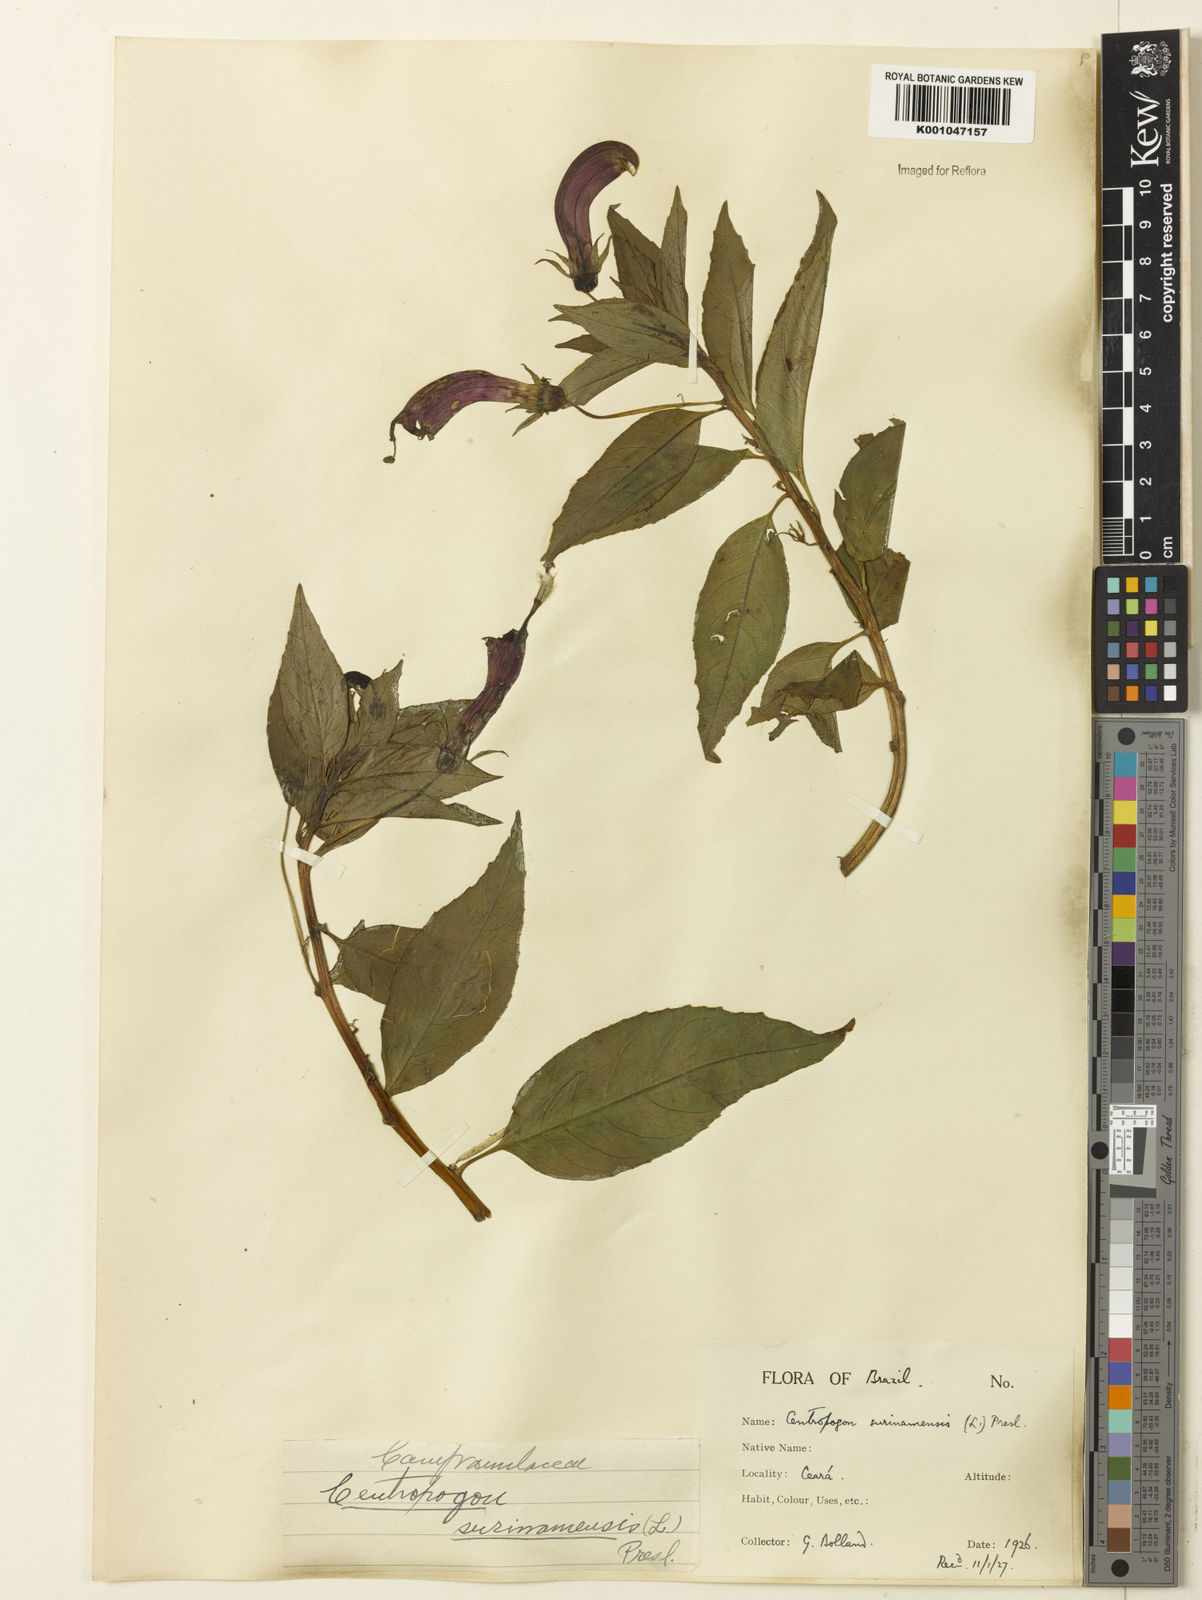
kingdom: Plantae
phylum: Tracheophyta
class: Magnoliopsida
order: Asterales
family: Campanulaceae
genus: Centropogon
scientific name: Centropogon cornutus
